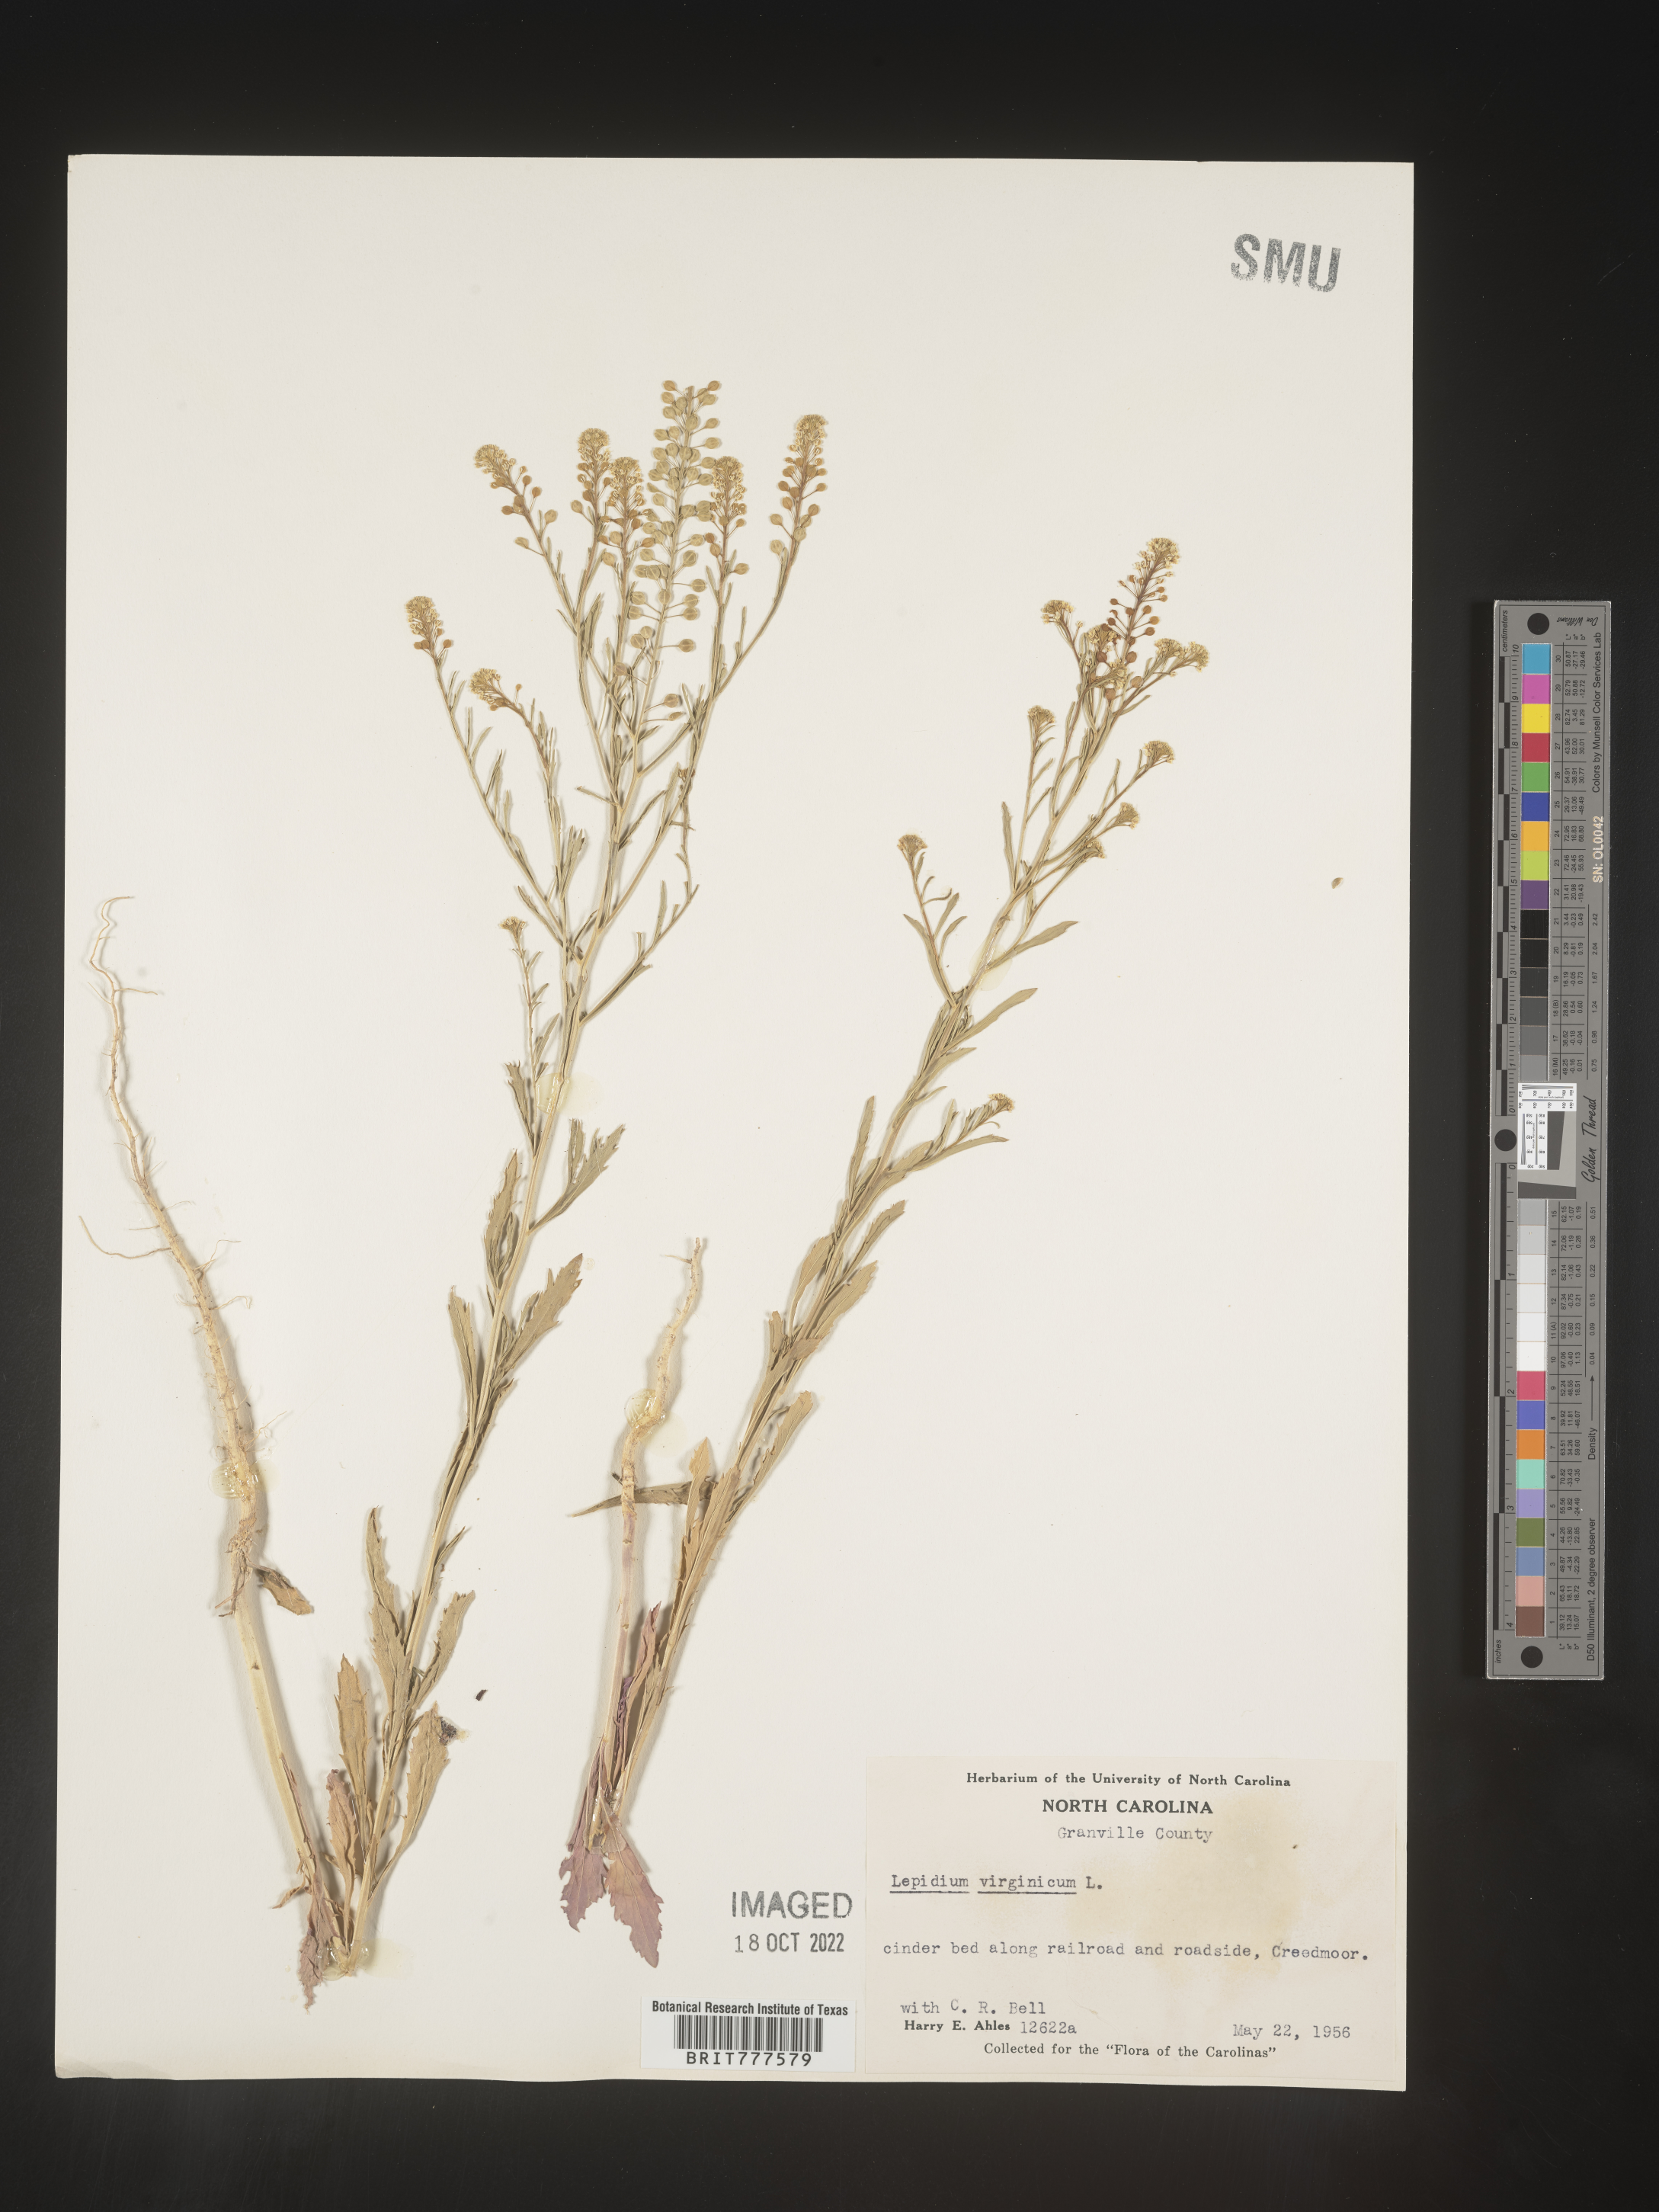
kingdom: Plantae
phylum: Tracheophyta
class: Magnoliopsida
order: Brassicales
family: Brassicaceae
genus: Lepidium
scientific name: Lepidium virginicum
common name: Least pepperwort
